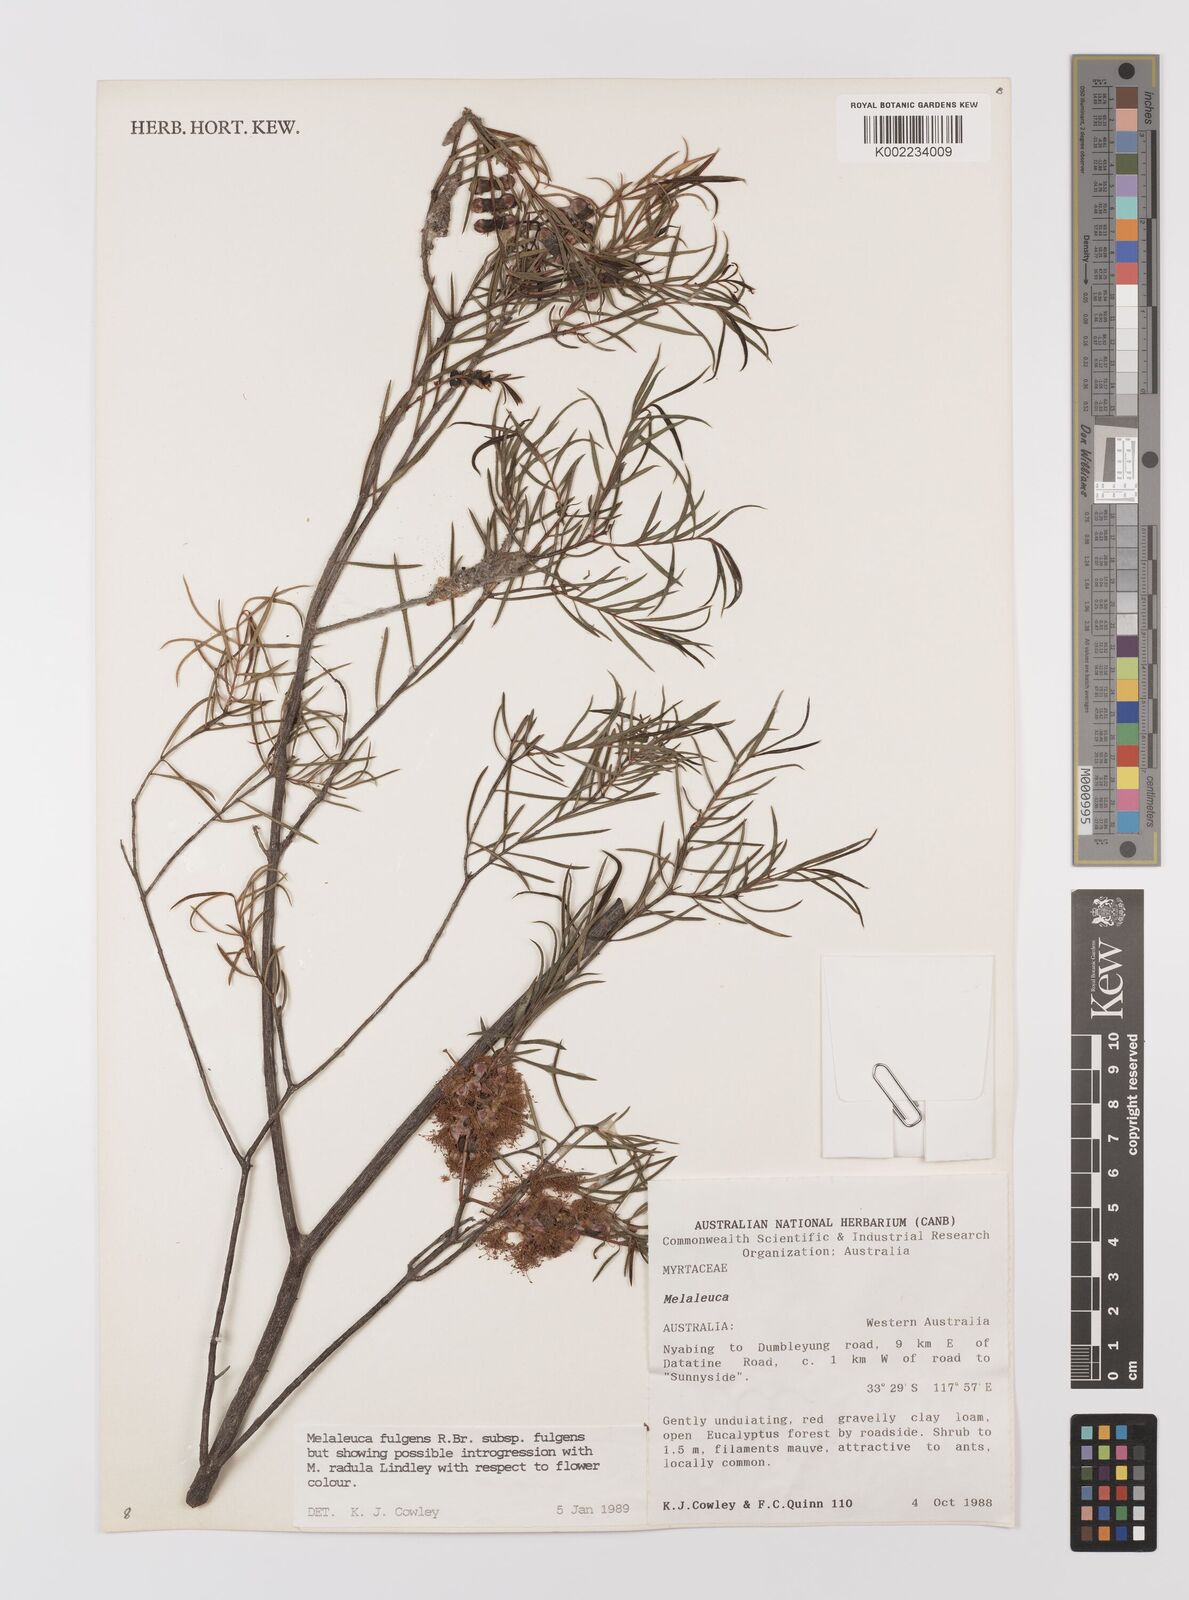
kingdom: Plantae
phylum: Tracheophyta
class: Magnoliopsida
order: Myrtales
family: Myrtaceae
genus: Melaleuca
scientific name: Melaleuca fulgens
